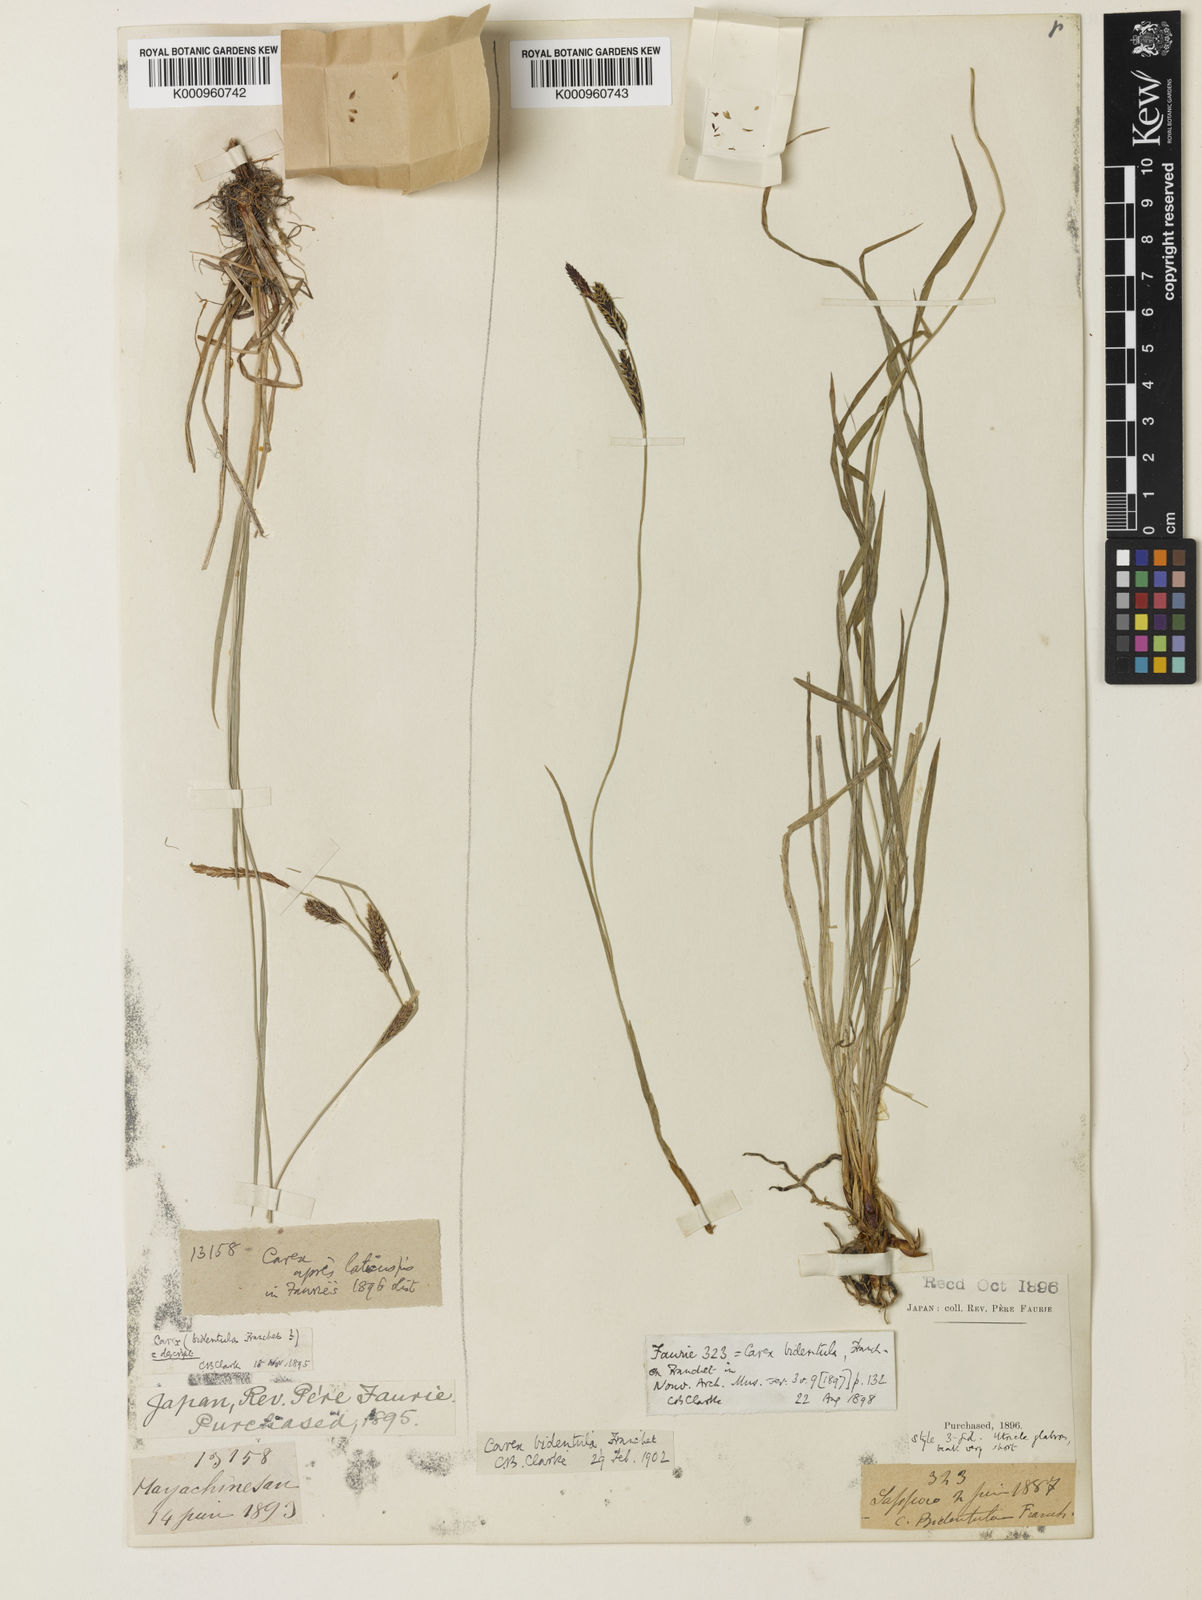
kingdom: Plantae
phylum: Tracheophyta
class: Liliopsida
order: Poales
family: Cyperaceae
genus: Carex
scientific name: Carex augustinowiczii
